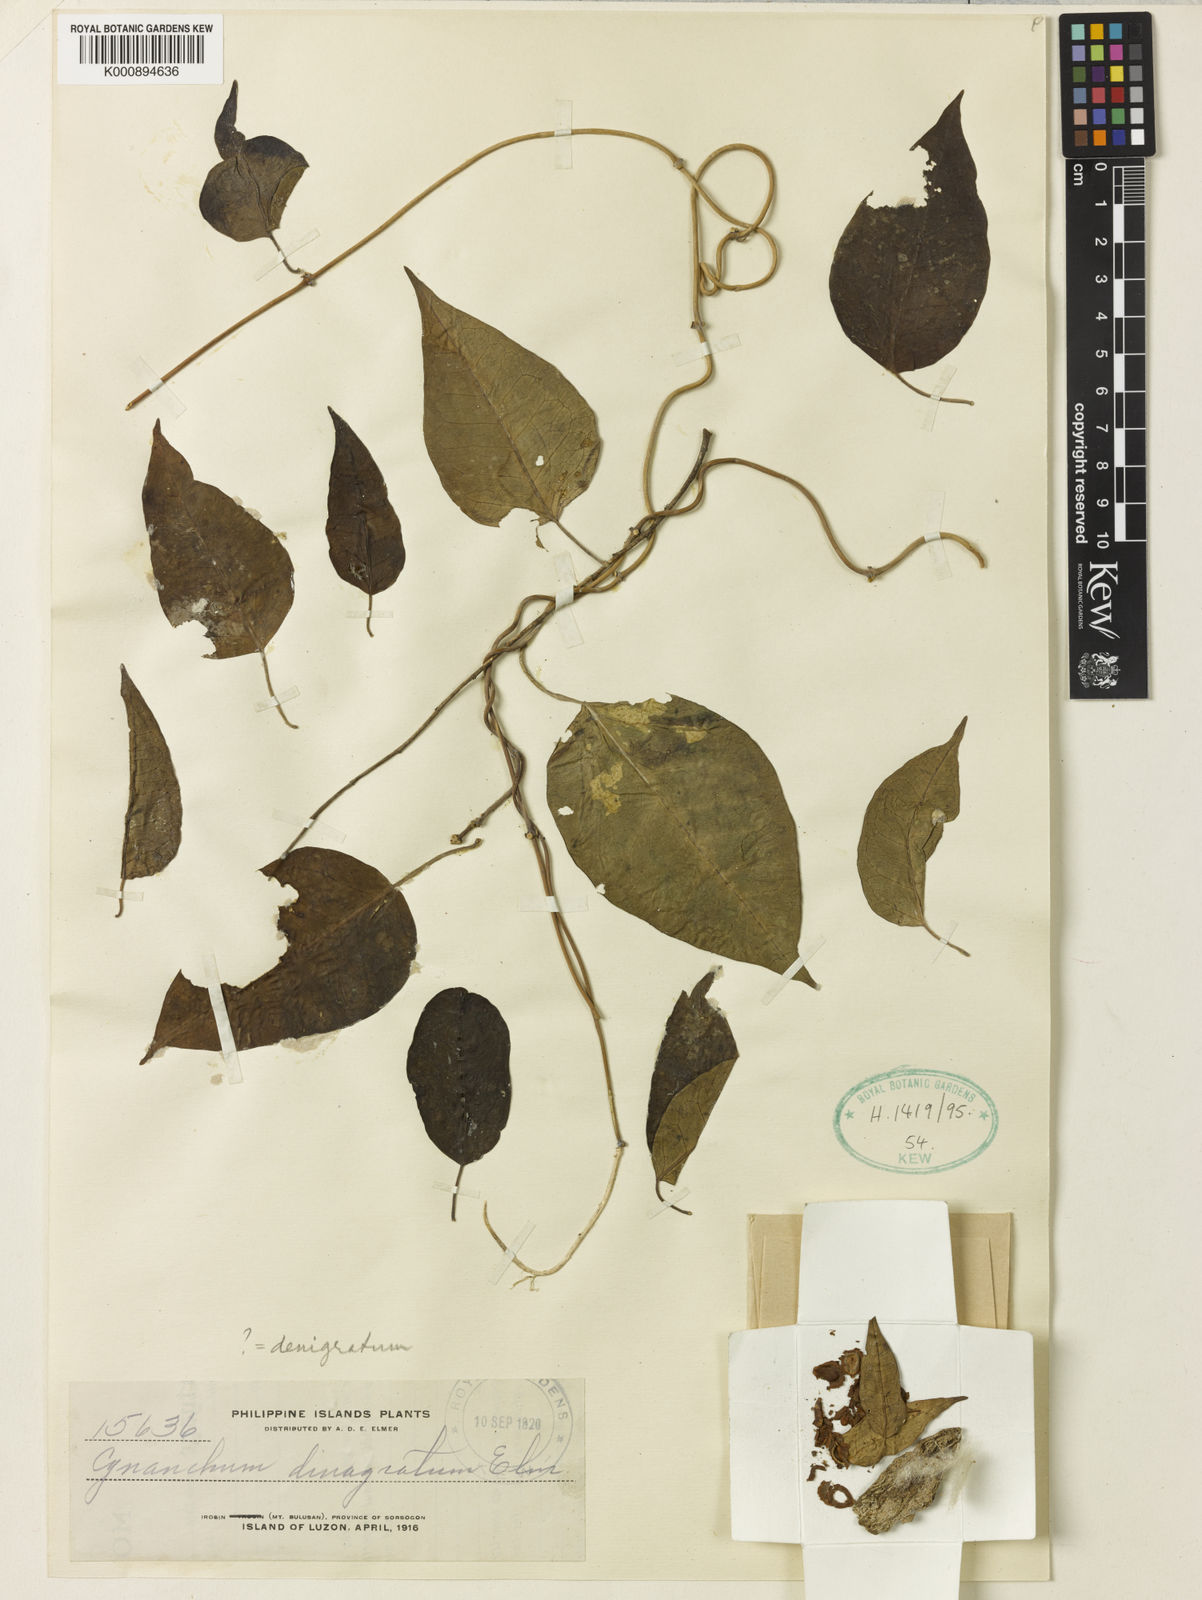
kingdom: Plantae
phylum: Tracheophyta
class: Magnoliopsida
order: Gentianales
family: Apocynaceae
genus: Cynanchum
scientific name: Cynanchum physocarpum
